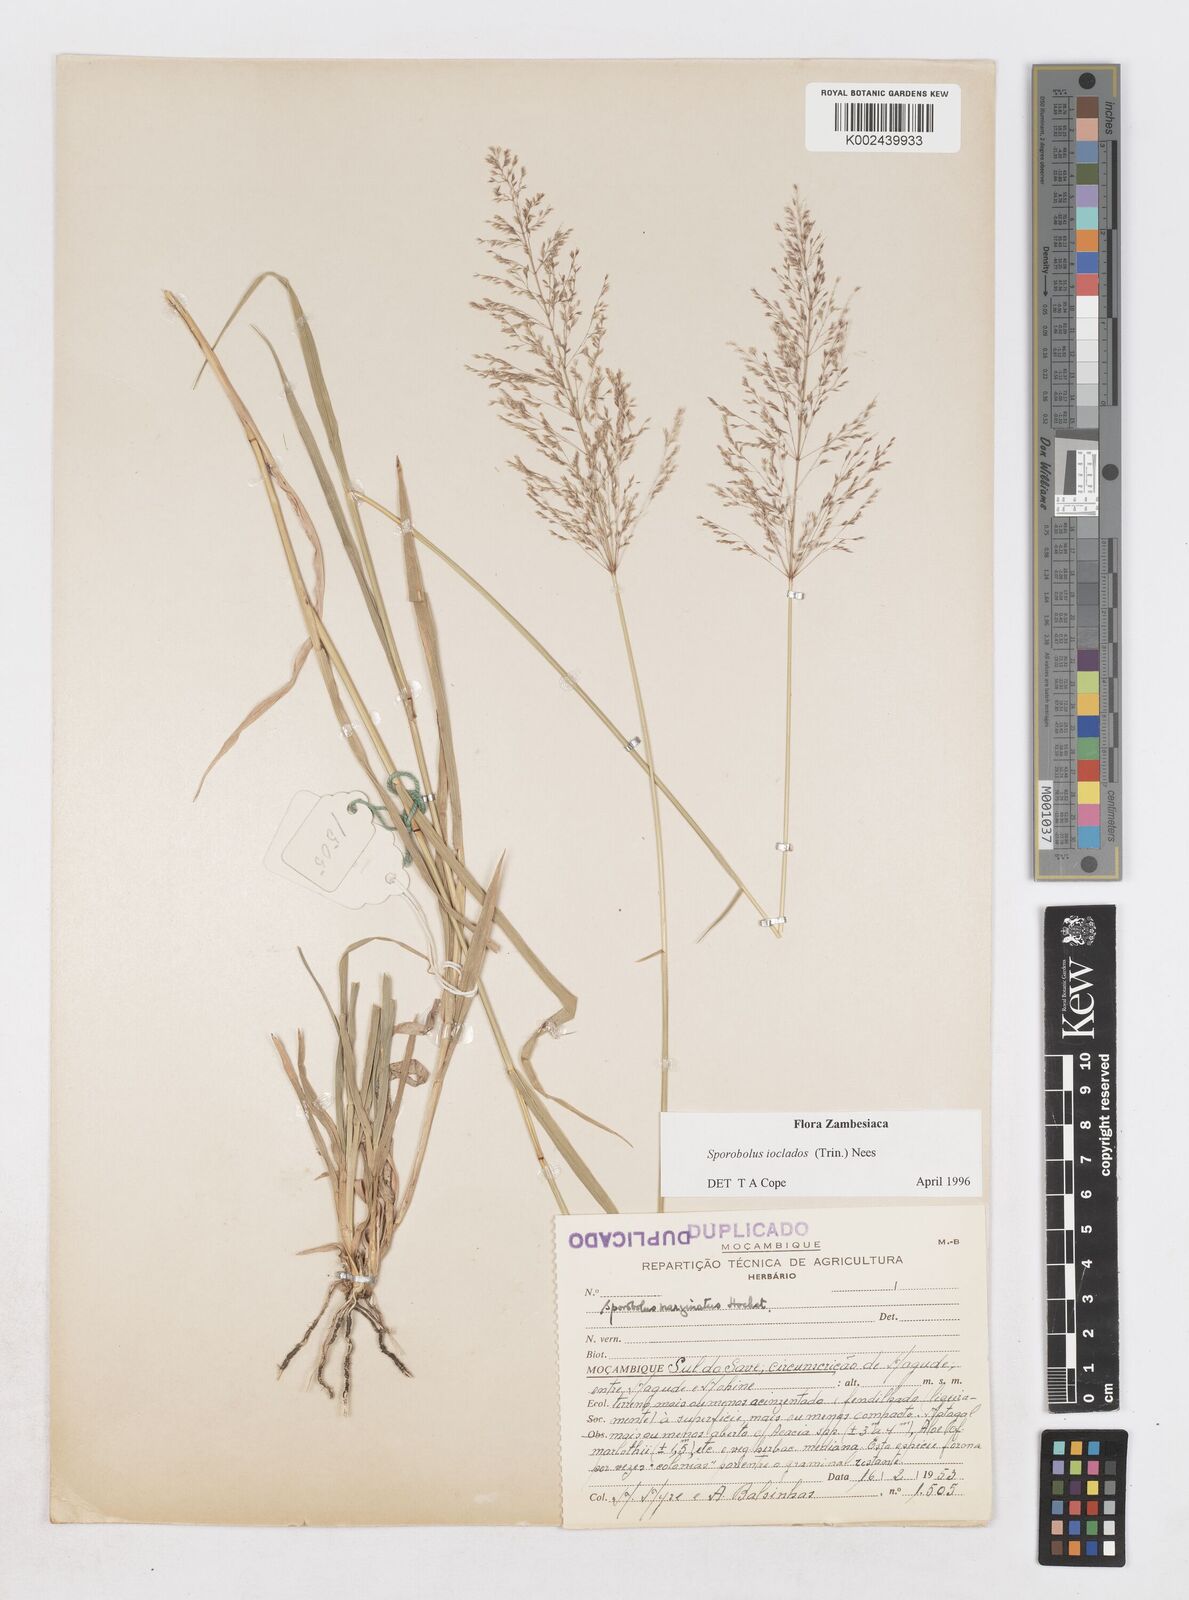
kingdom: Plantae
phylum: Tracheophyta
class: Liliopsida
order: Poales
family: Poaceae
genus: Sporobolus
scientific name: Sporobolus ioclados
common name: Pan dropseed
